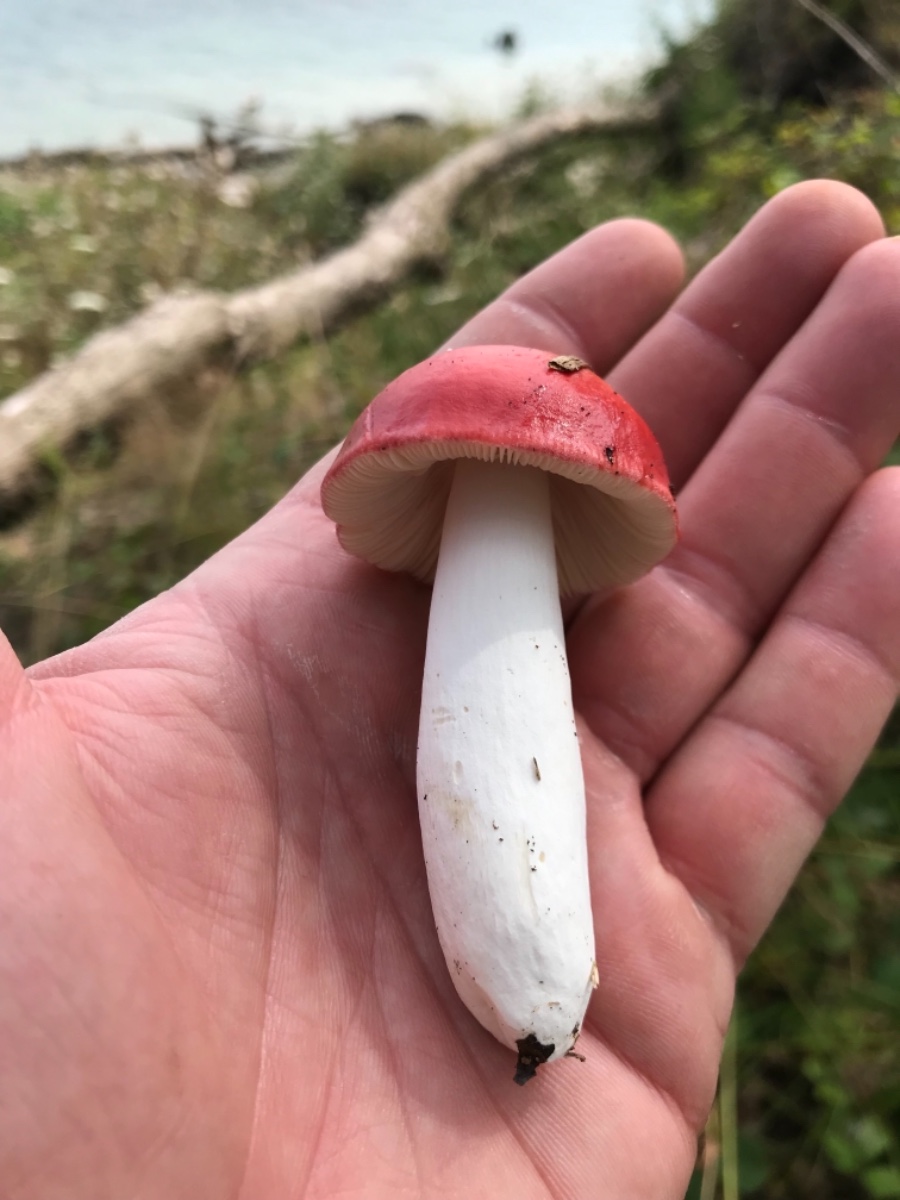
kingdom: Fungi
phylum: Basidiomycota
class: Agaricomycetes
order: Russulales
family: Russulaceae
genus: Russula
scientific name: Russula
